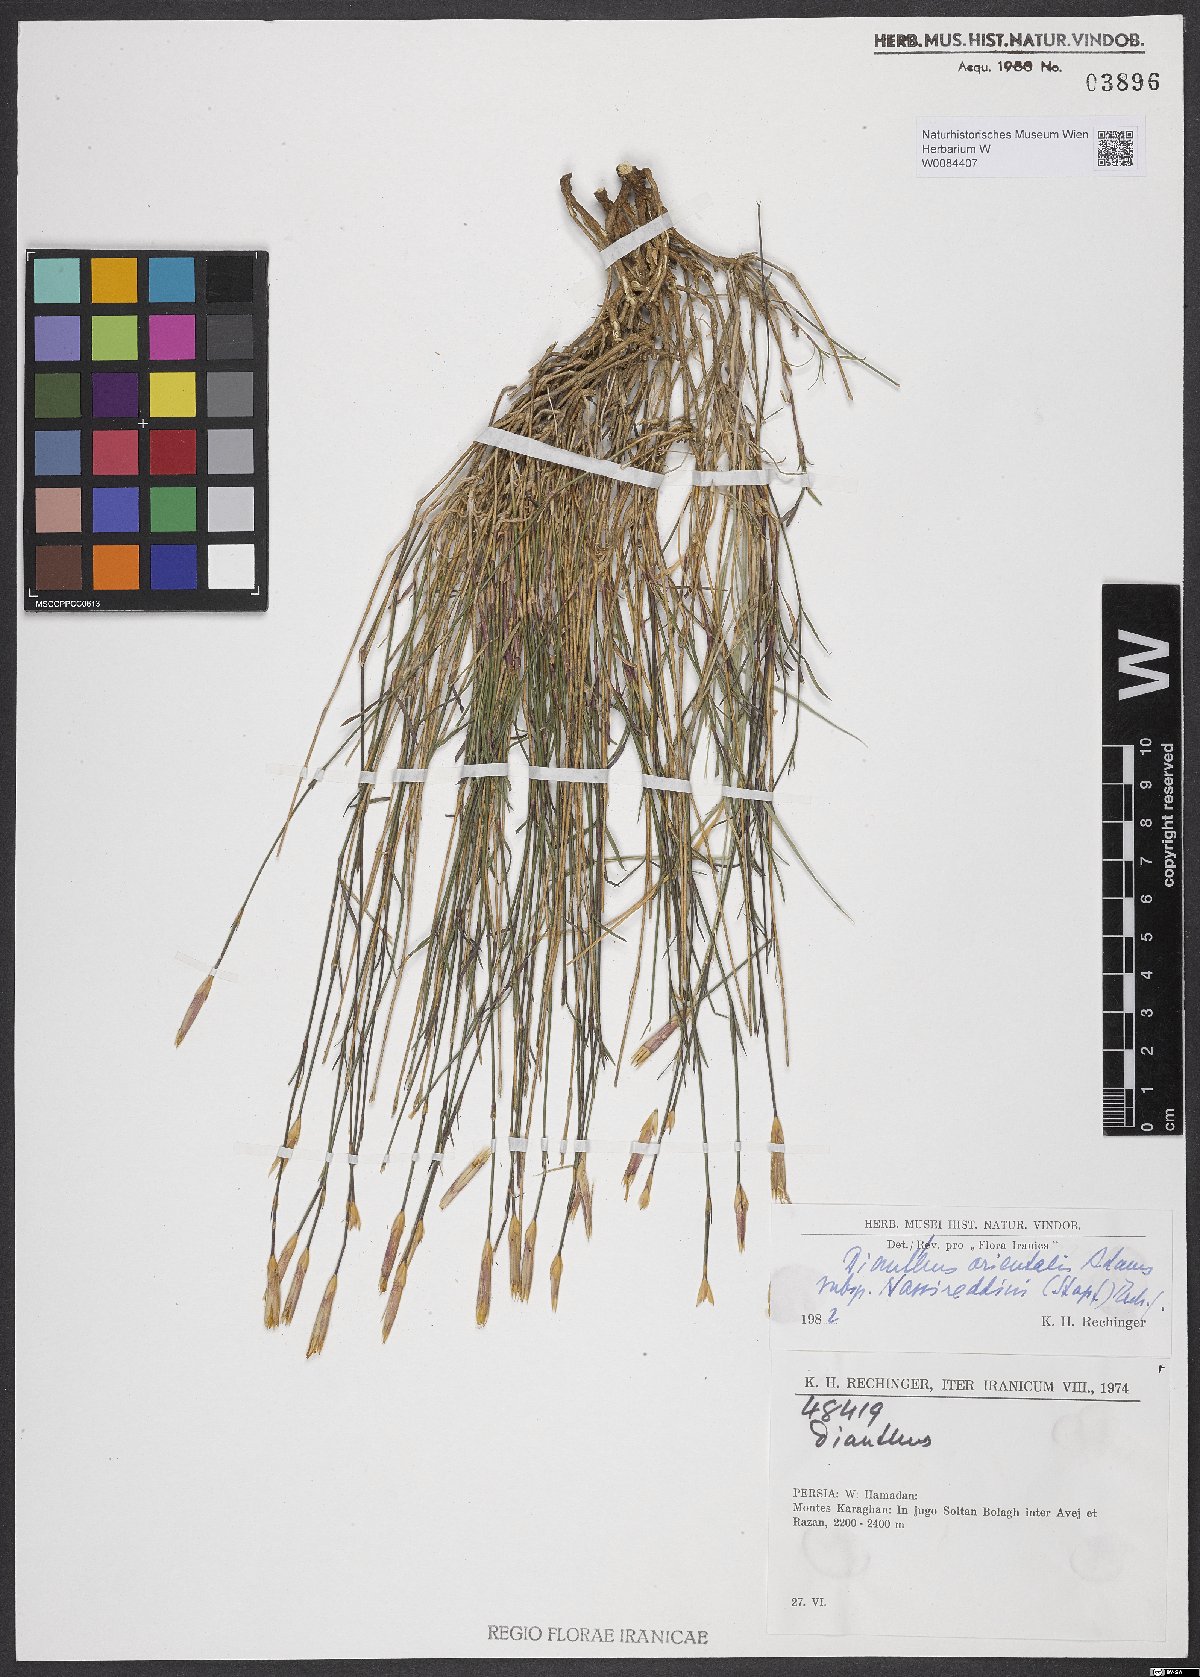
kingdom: Plantae
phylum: Tracheophyta
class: Magnoliopsida
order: Caryophyllales
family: Caryophyllaceae
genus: Dianthus
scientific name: Dianthus orientalis
